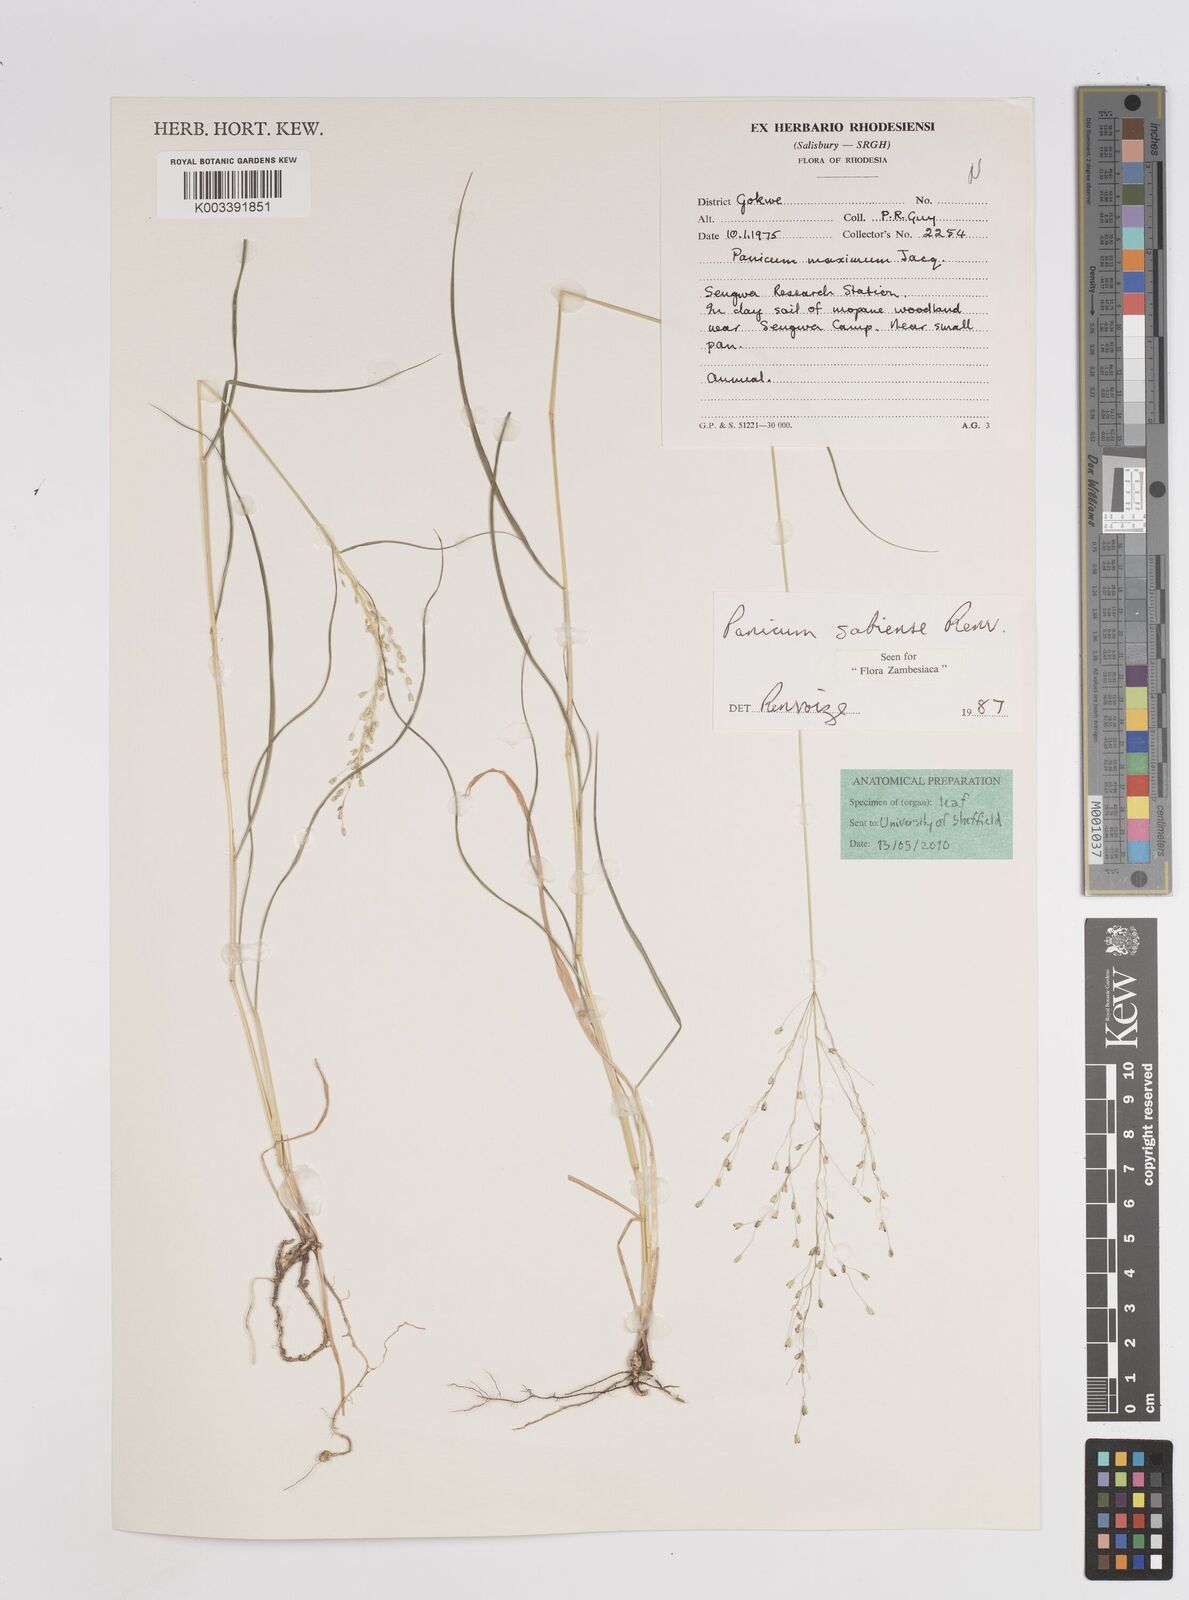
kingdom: Plantae
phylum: Tracheophyta
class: Liliopsida
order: Poales
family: Poaceae
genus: Panicum
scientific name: Panicum trichoides
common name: Tickle grass
